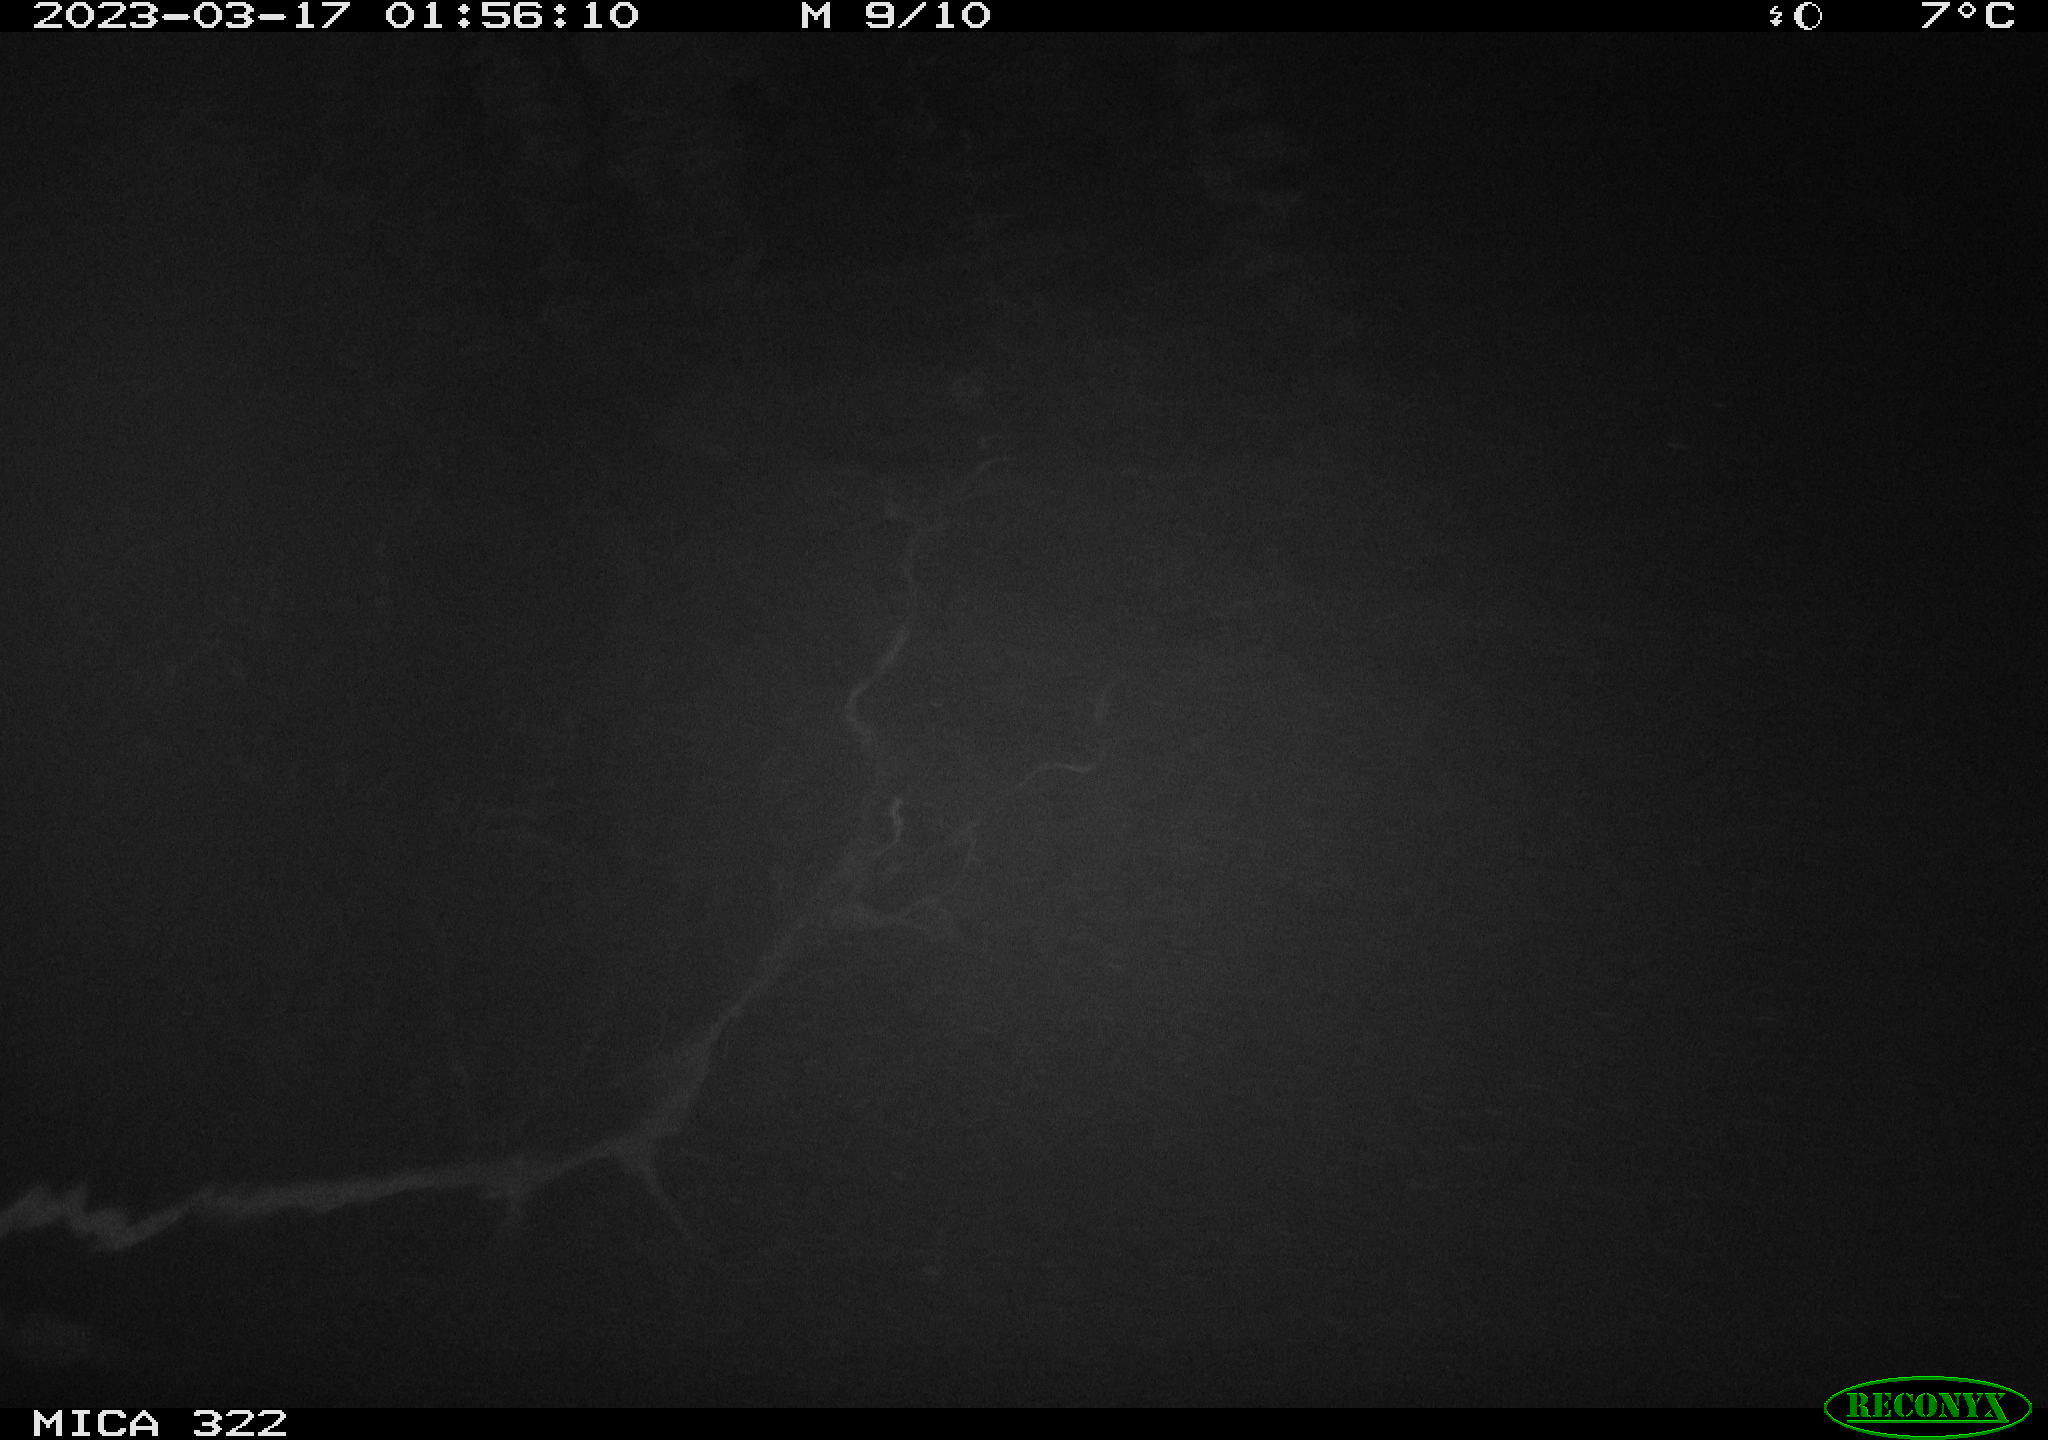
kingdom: Animalia
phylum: Chordata
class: Aves
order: Anseriformes
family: Anatidae
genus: Anas
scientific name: Anas
